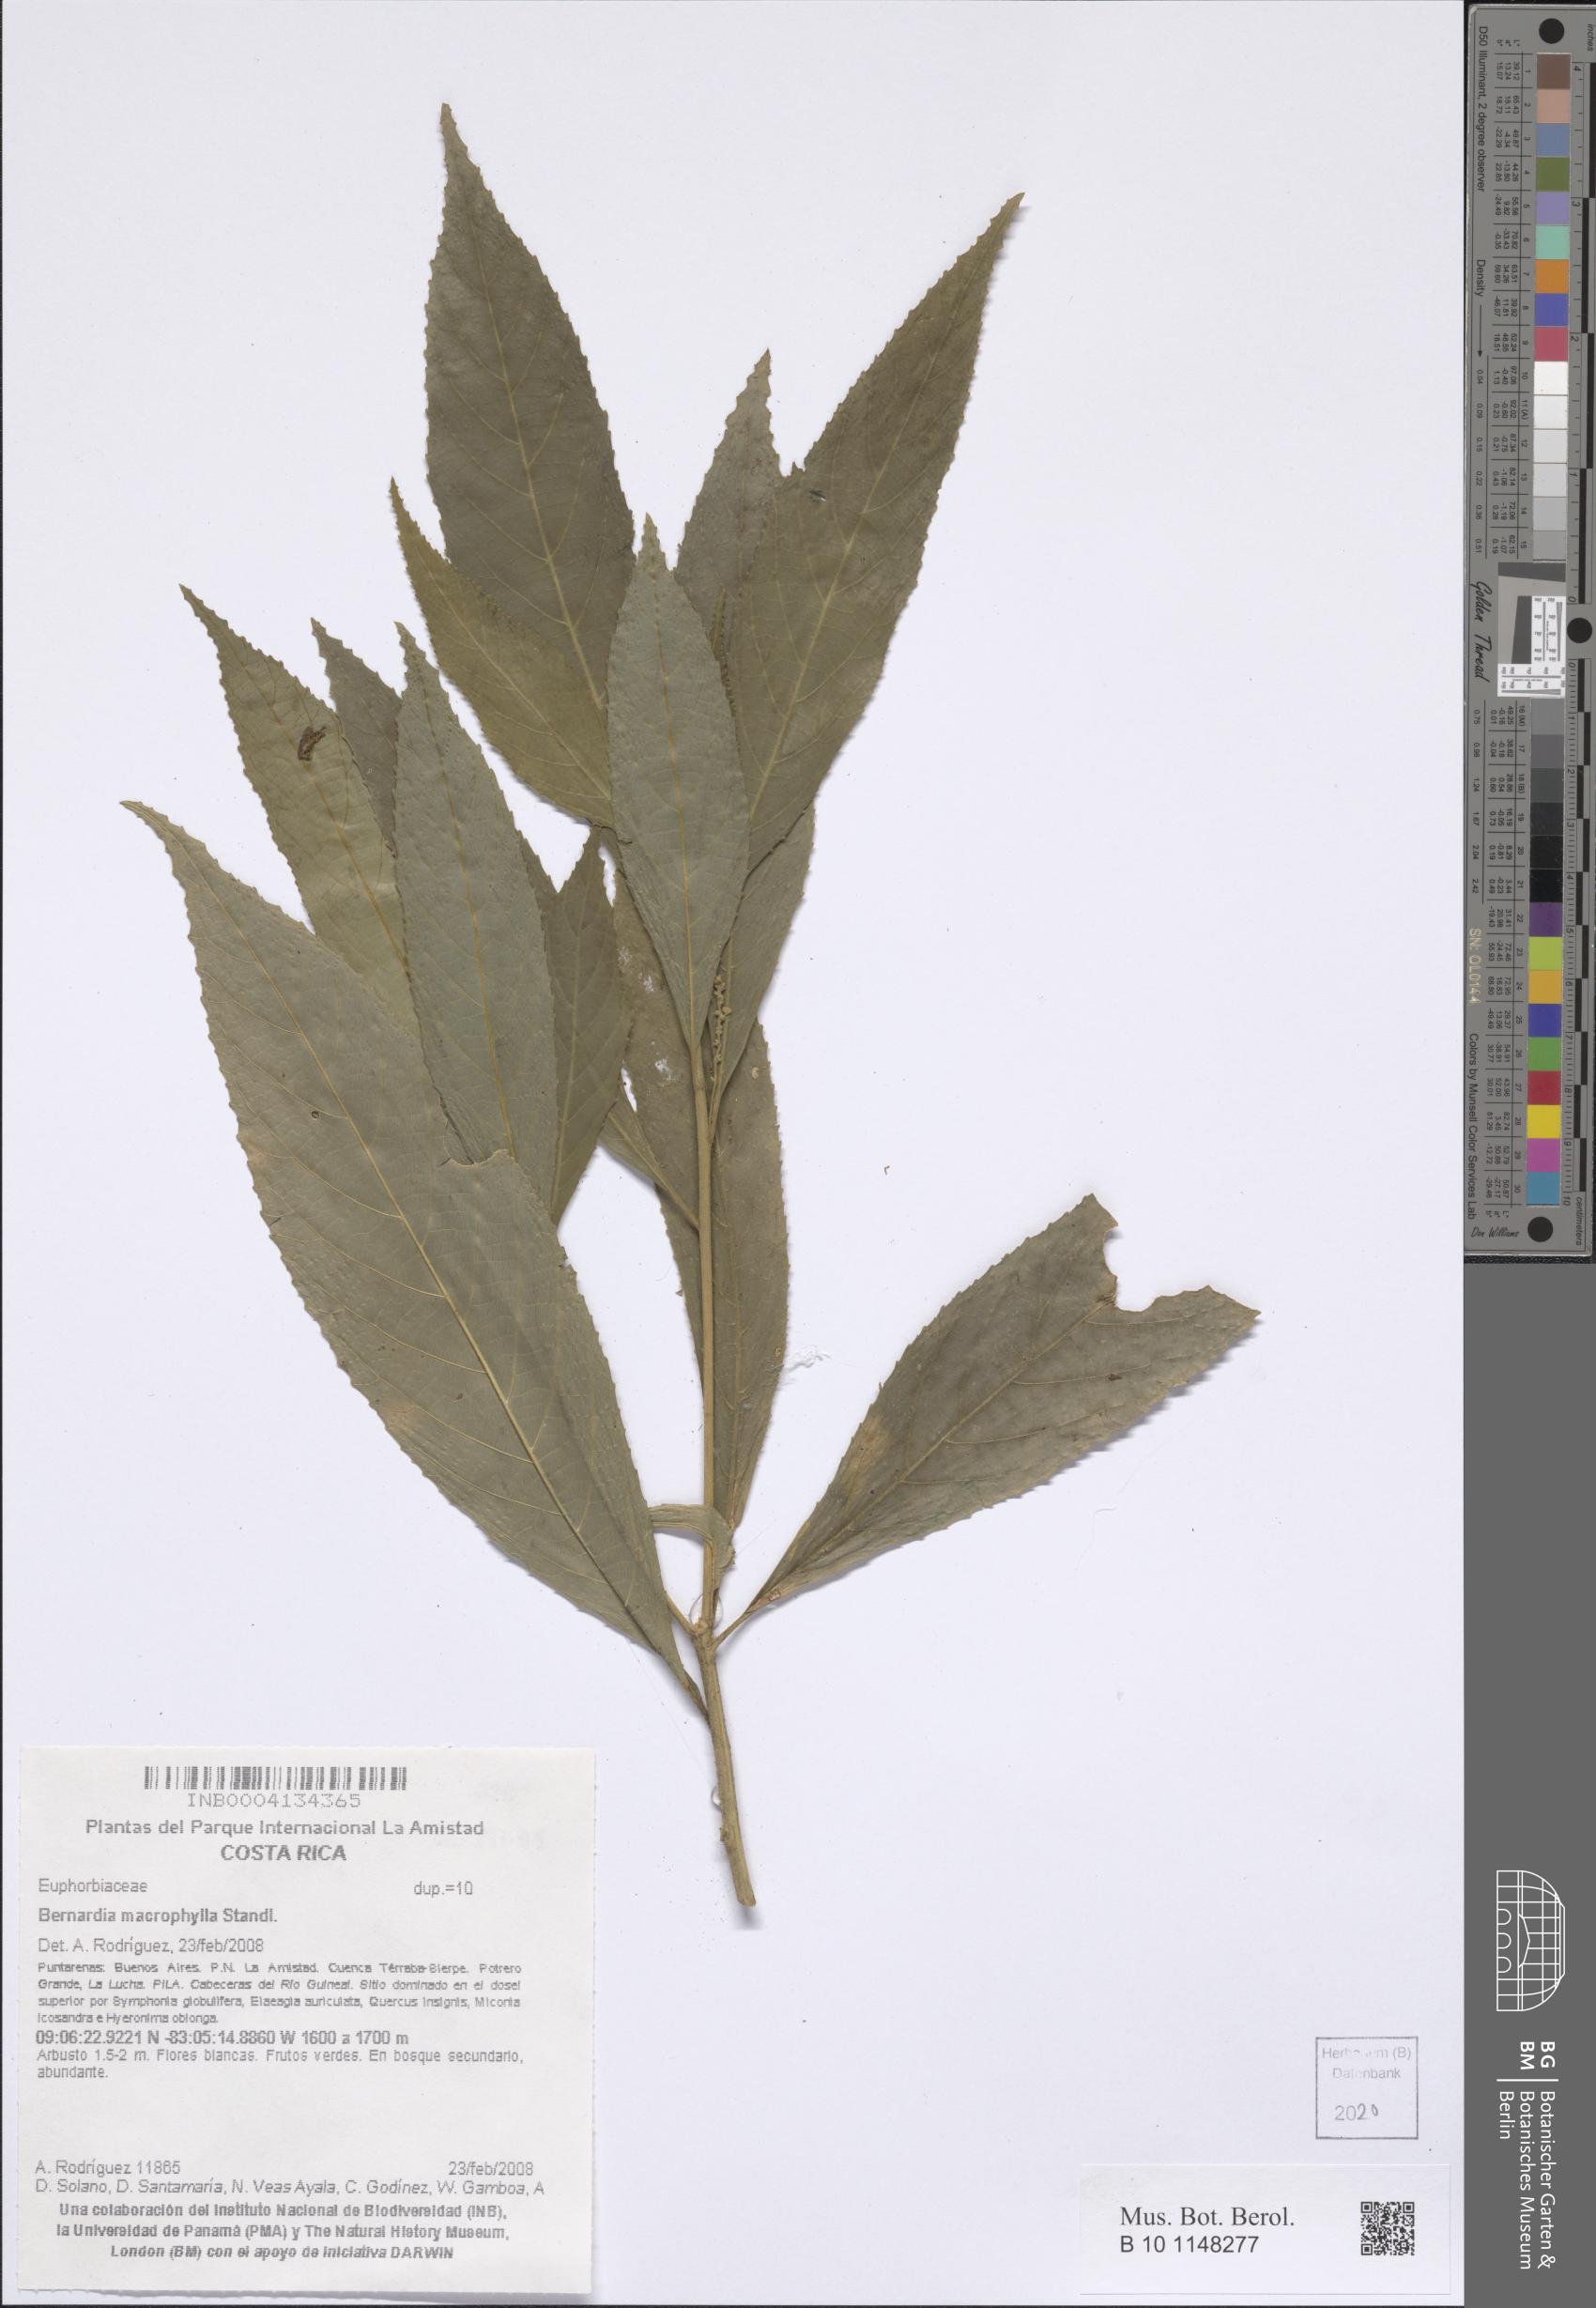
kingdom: Plantae
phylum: Tracheophyta
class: Magnoliopsida
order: Malpighiales
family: Euphorbiaceae
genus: Bernardia
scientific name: Bernardia macrophylla
